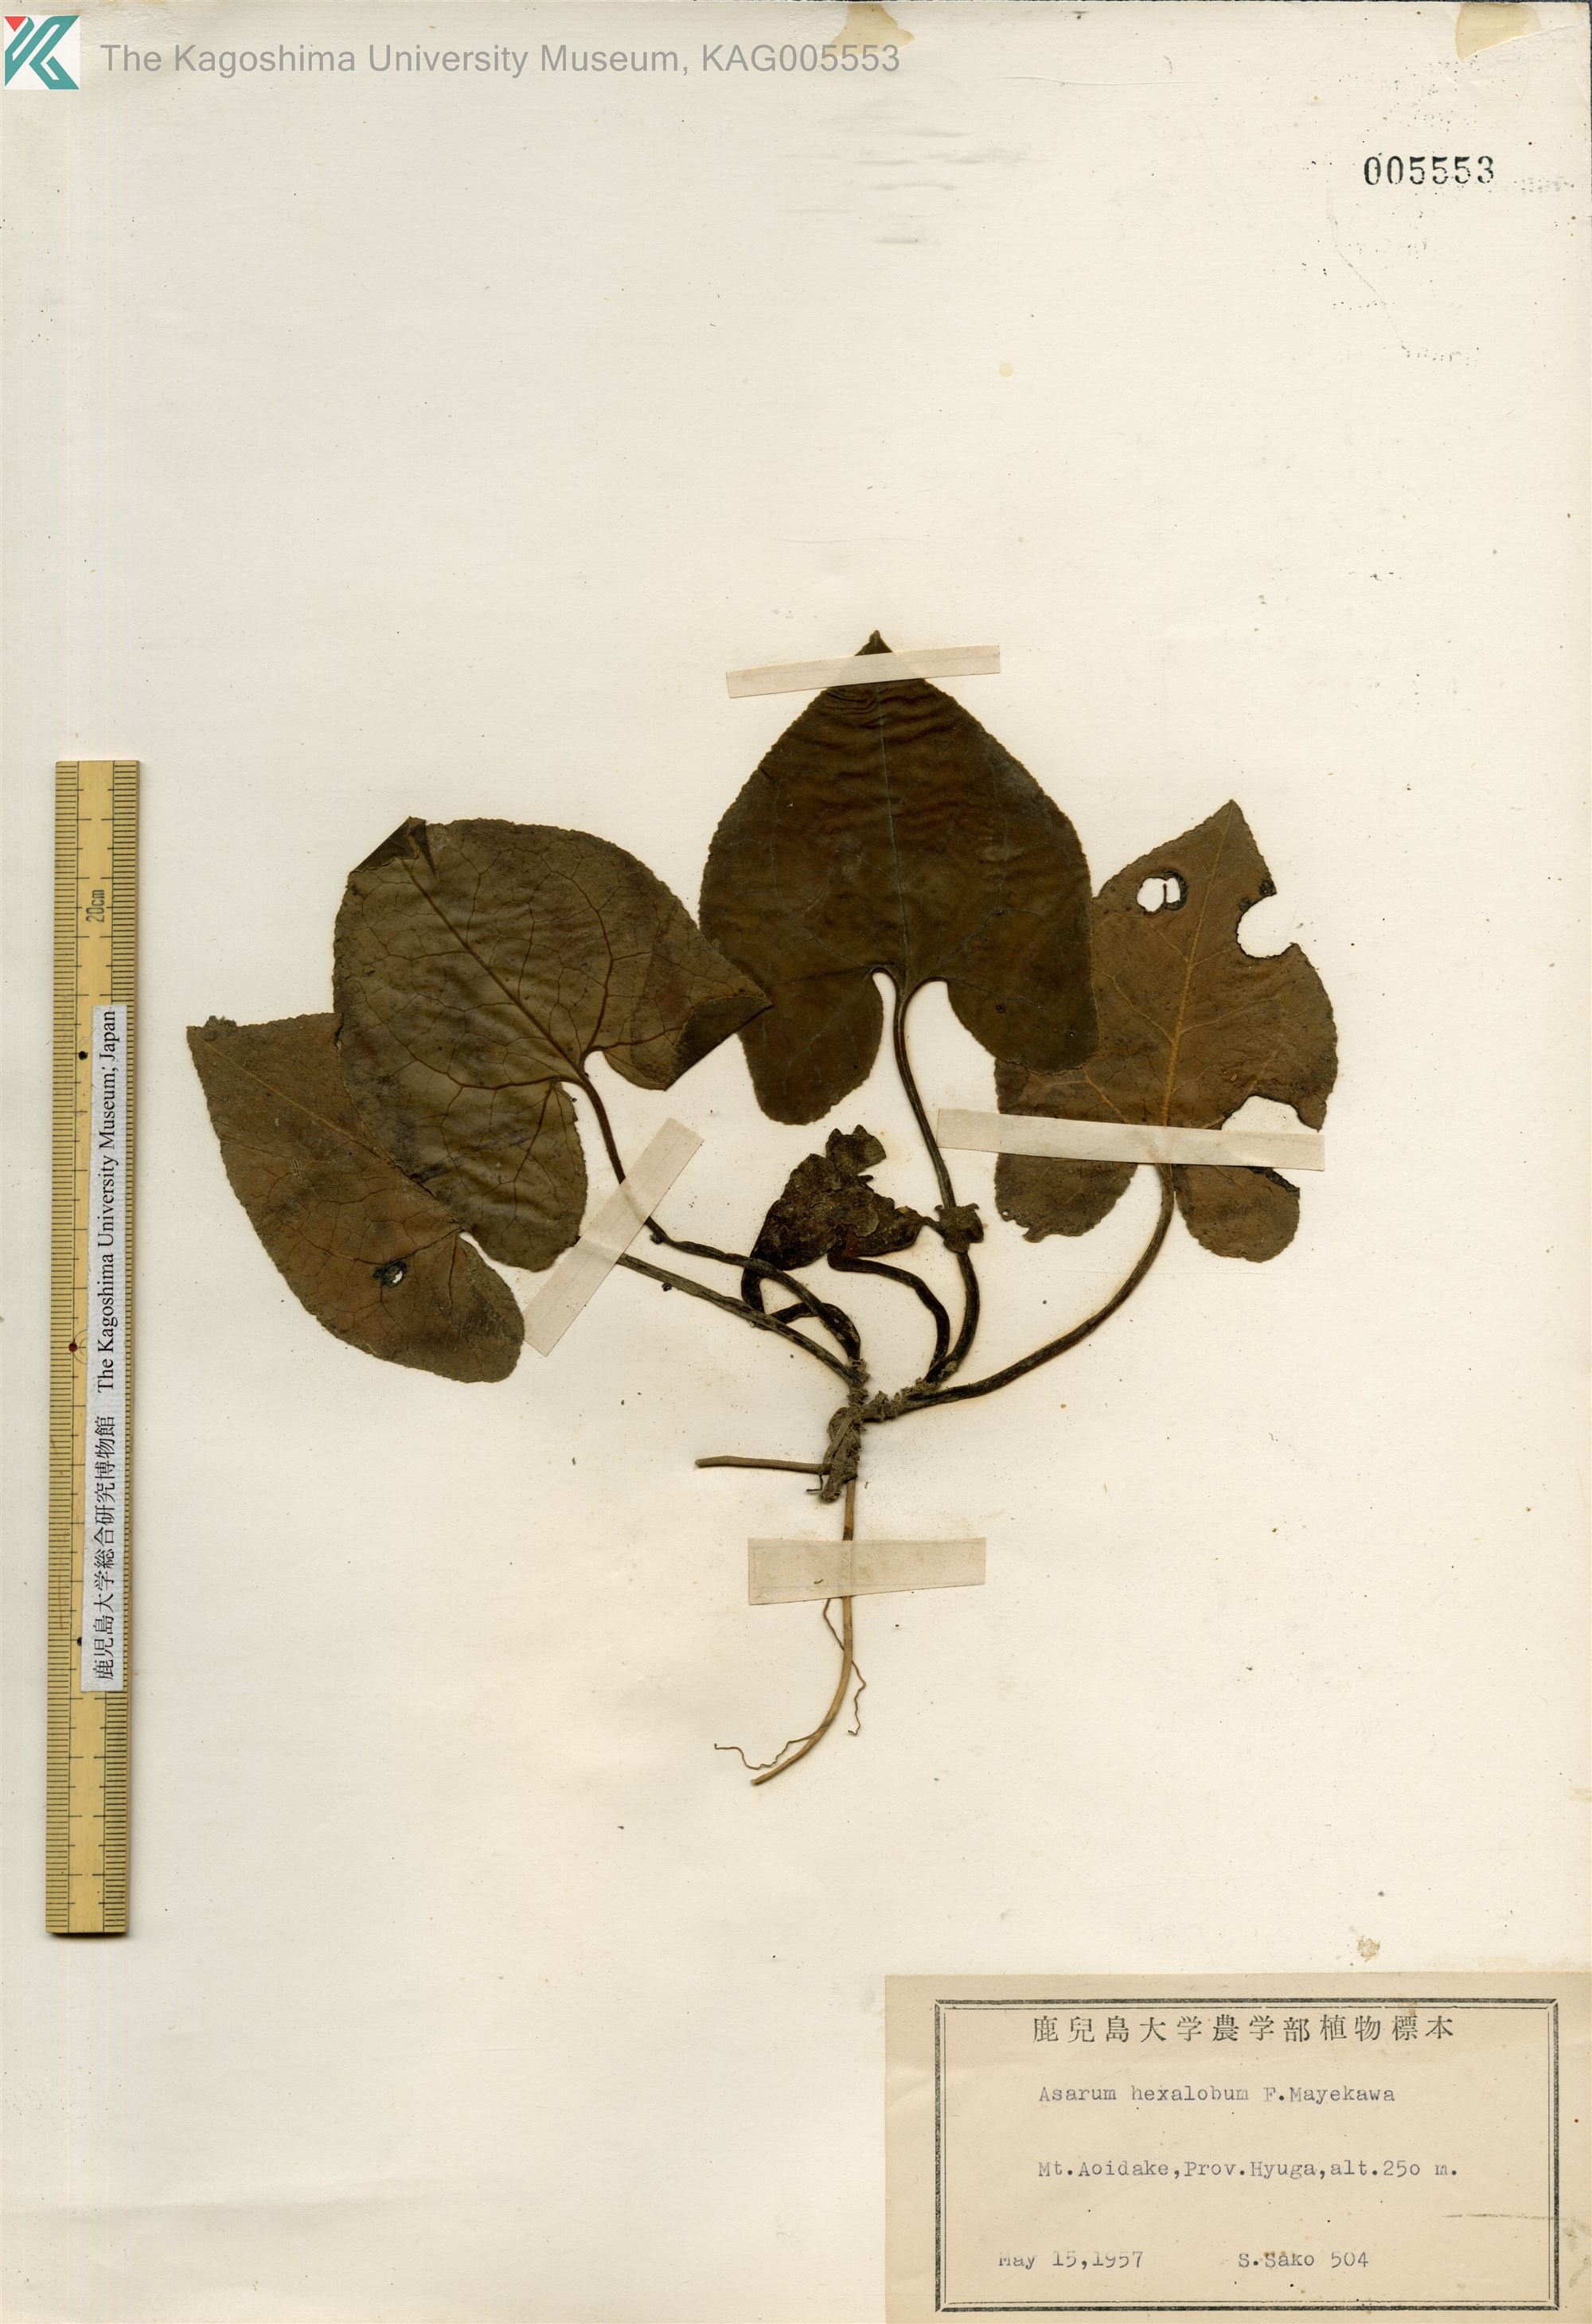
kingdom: Plantae
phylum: Tracheophyta
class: Magnoliopsida
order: Piperales
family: Aristolochiaceae
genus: Asarum
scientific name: Asarum hexalobum
